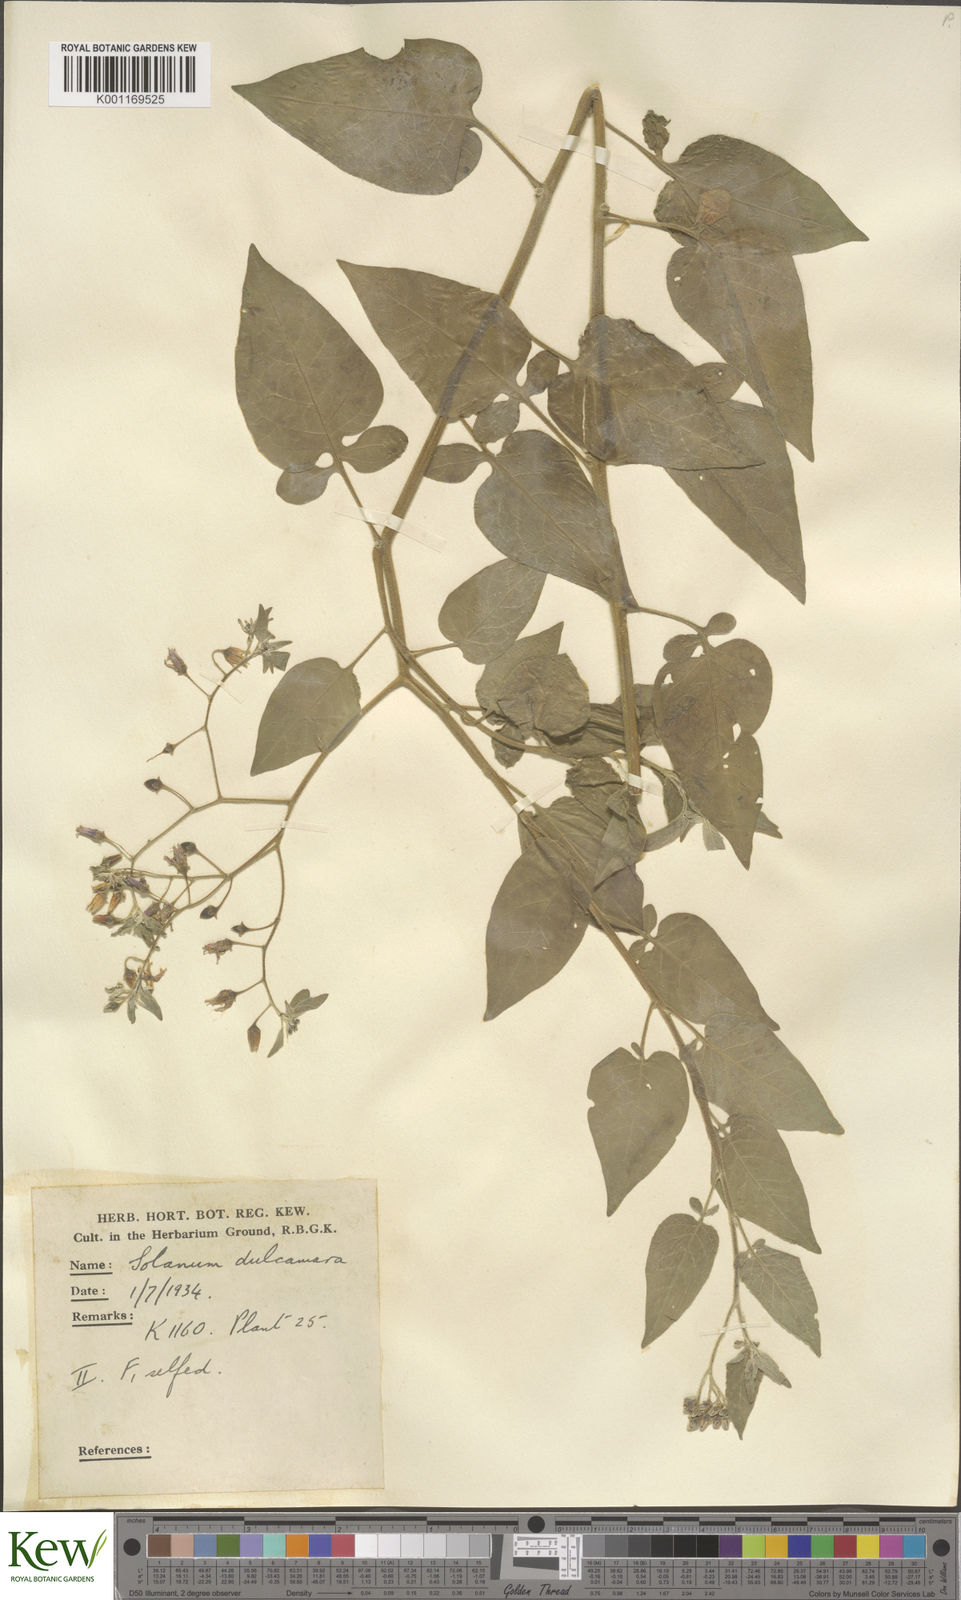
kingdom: Plantae
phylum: Tracheophyta
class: Magnoliopsida
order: Solanales
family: Solanaceae
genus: Solanum
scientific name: Solanum dulcamara
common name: Climbing nightshade
